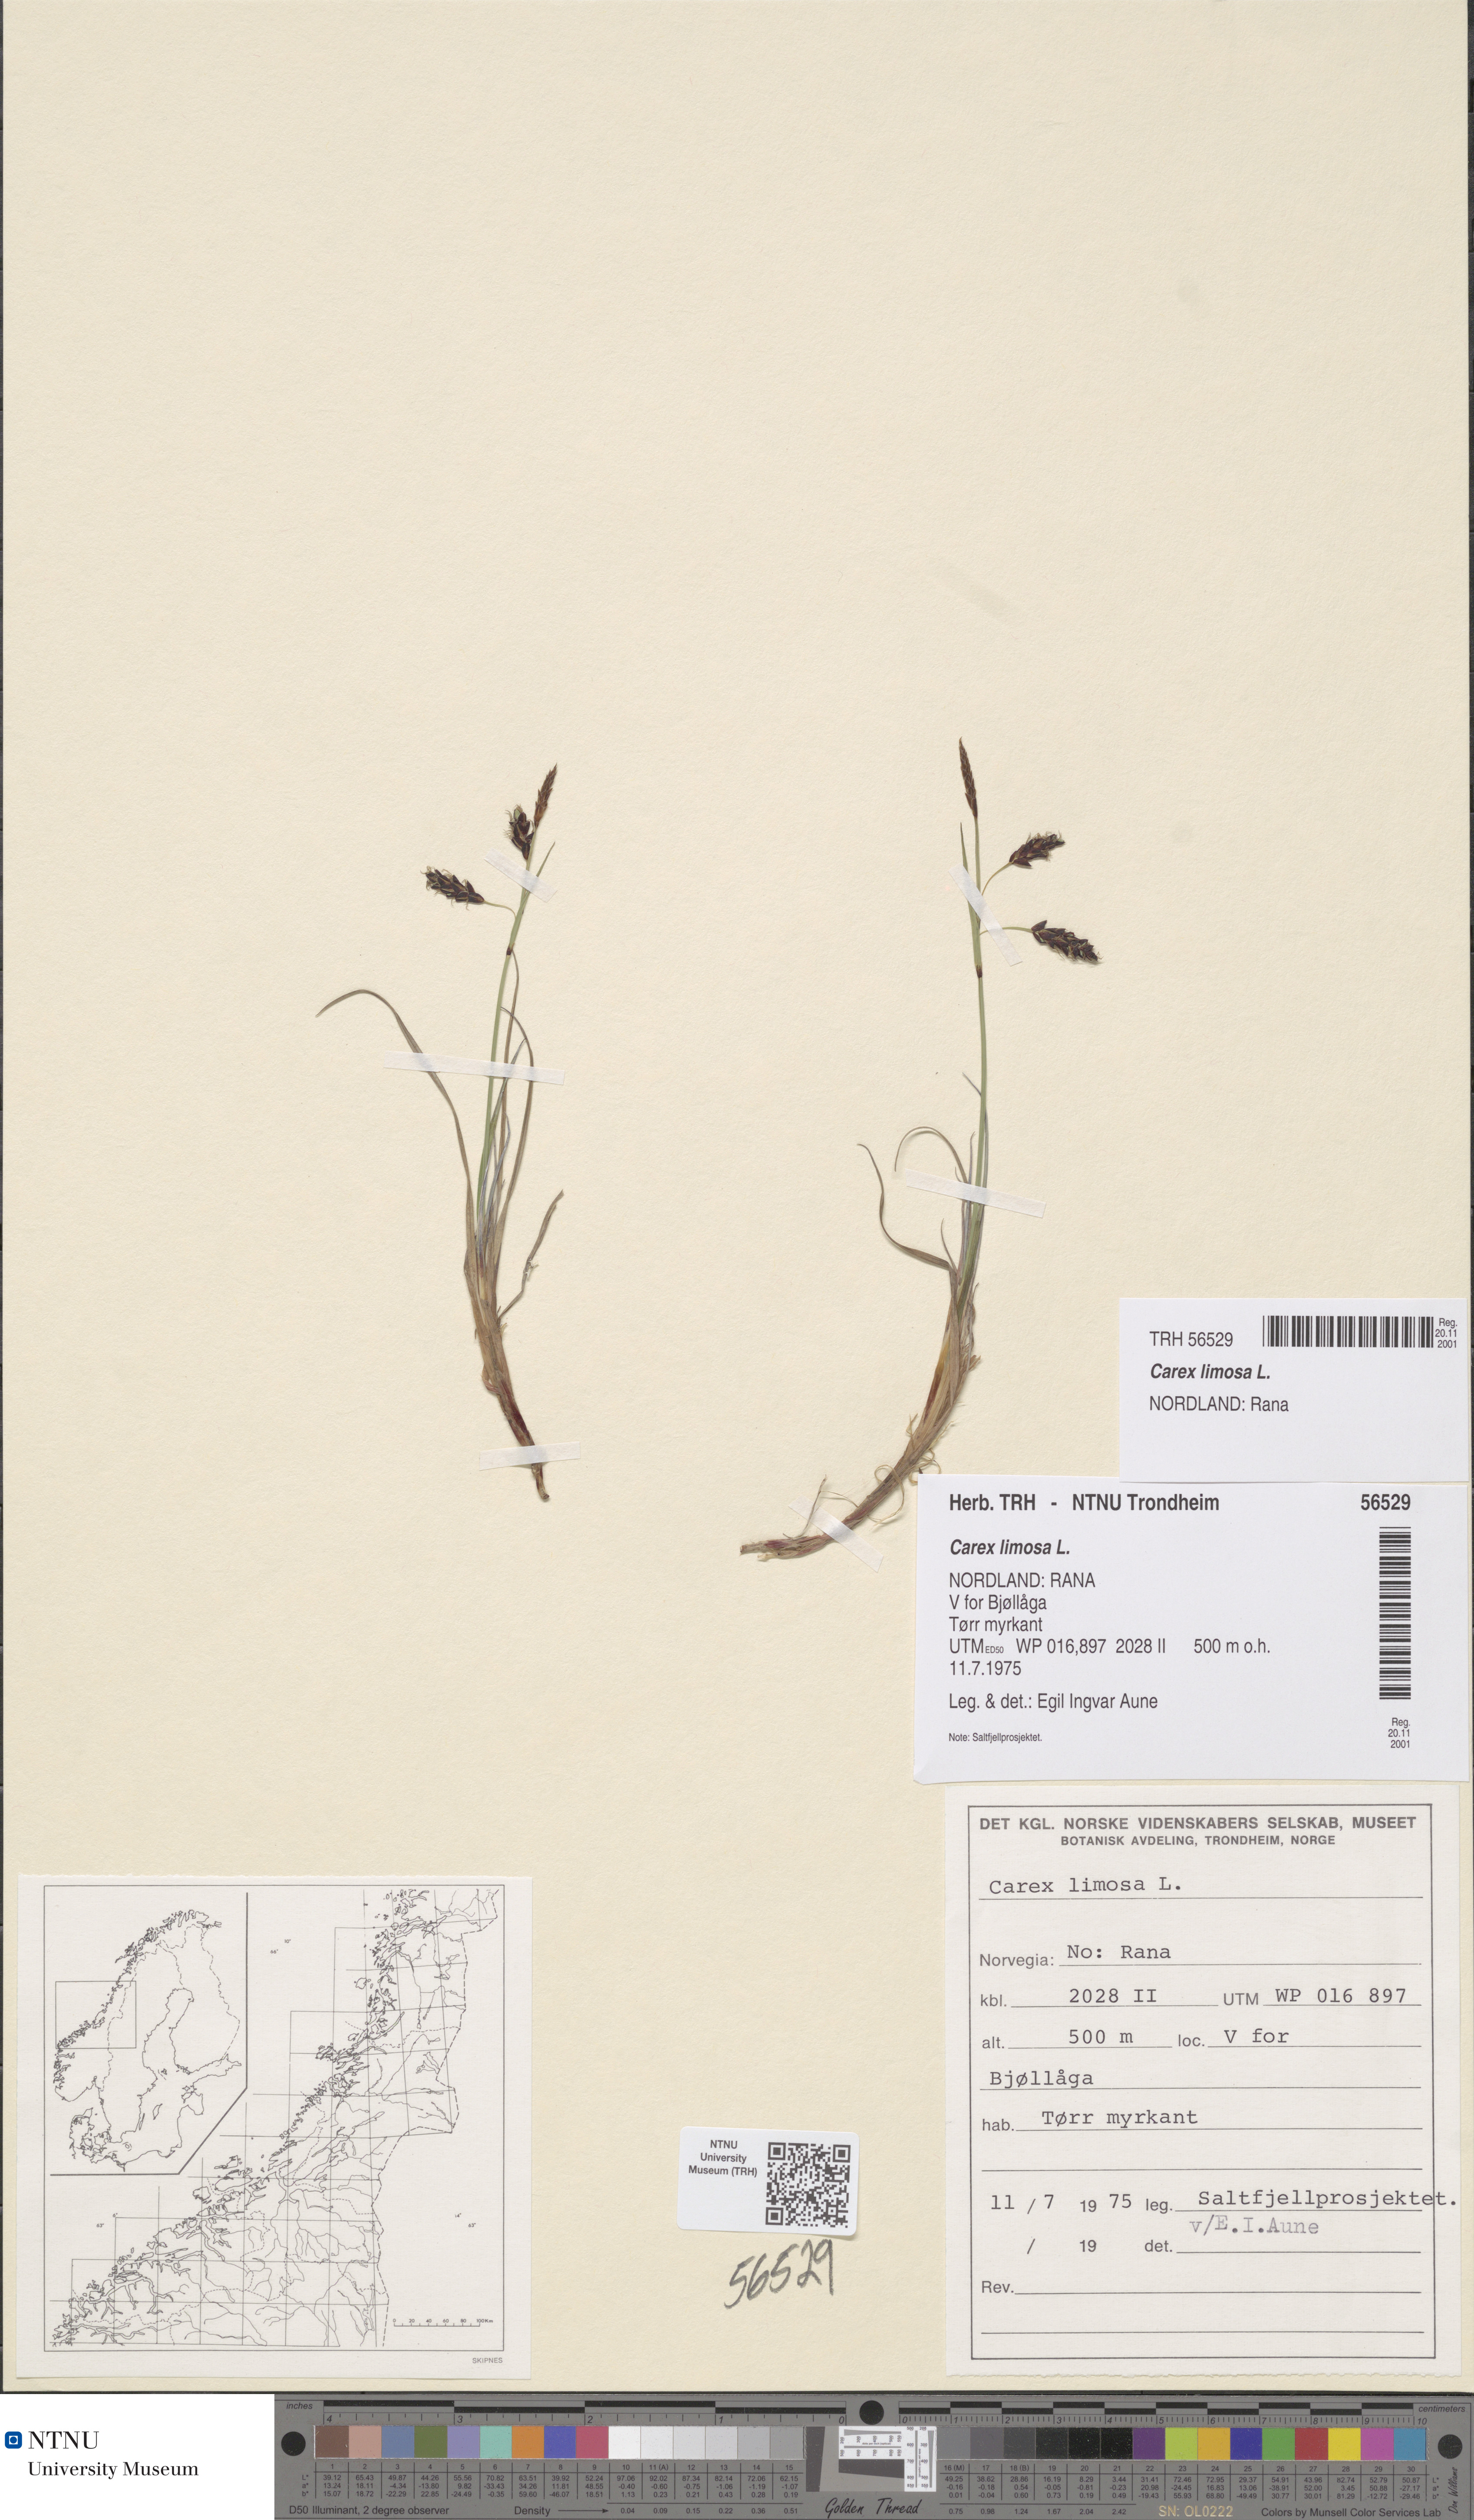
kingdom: Plantae
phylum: Tracheophyta
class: Liliopsida
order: Poales
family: Cyperaceae
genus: Carex
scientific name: Carex limosa
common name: Bog sedge
